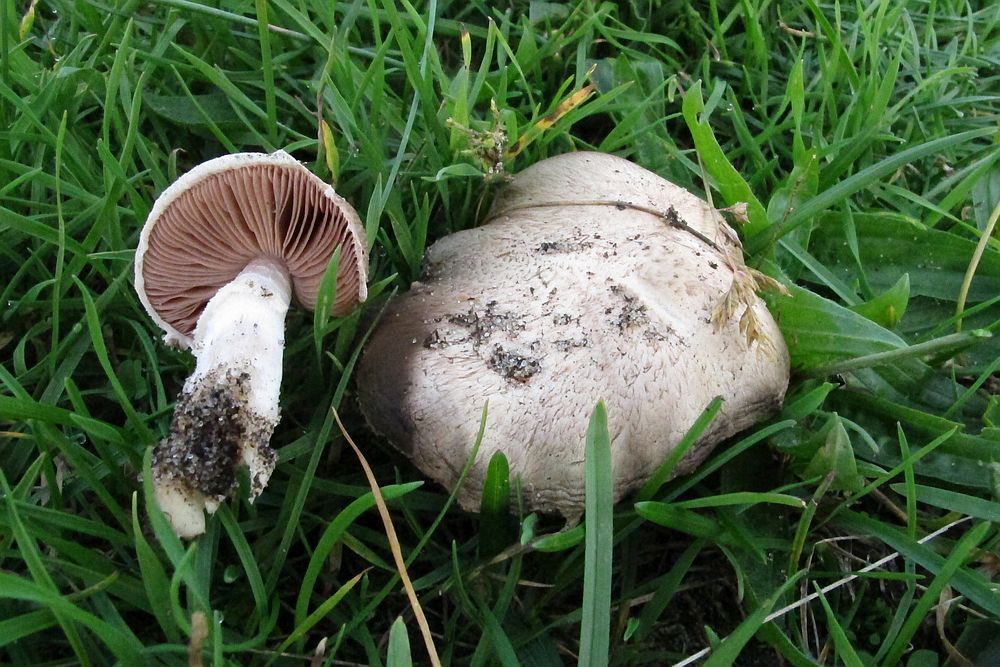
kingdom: Fungi
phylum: Basidiomycota
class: Agaricomycetes
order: Agaricales
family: Agaricaceae
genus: Agaricus
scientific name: Agaricus campestris
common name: mark-champignon
